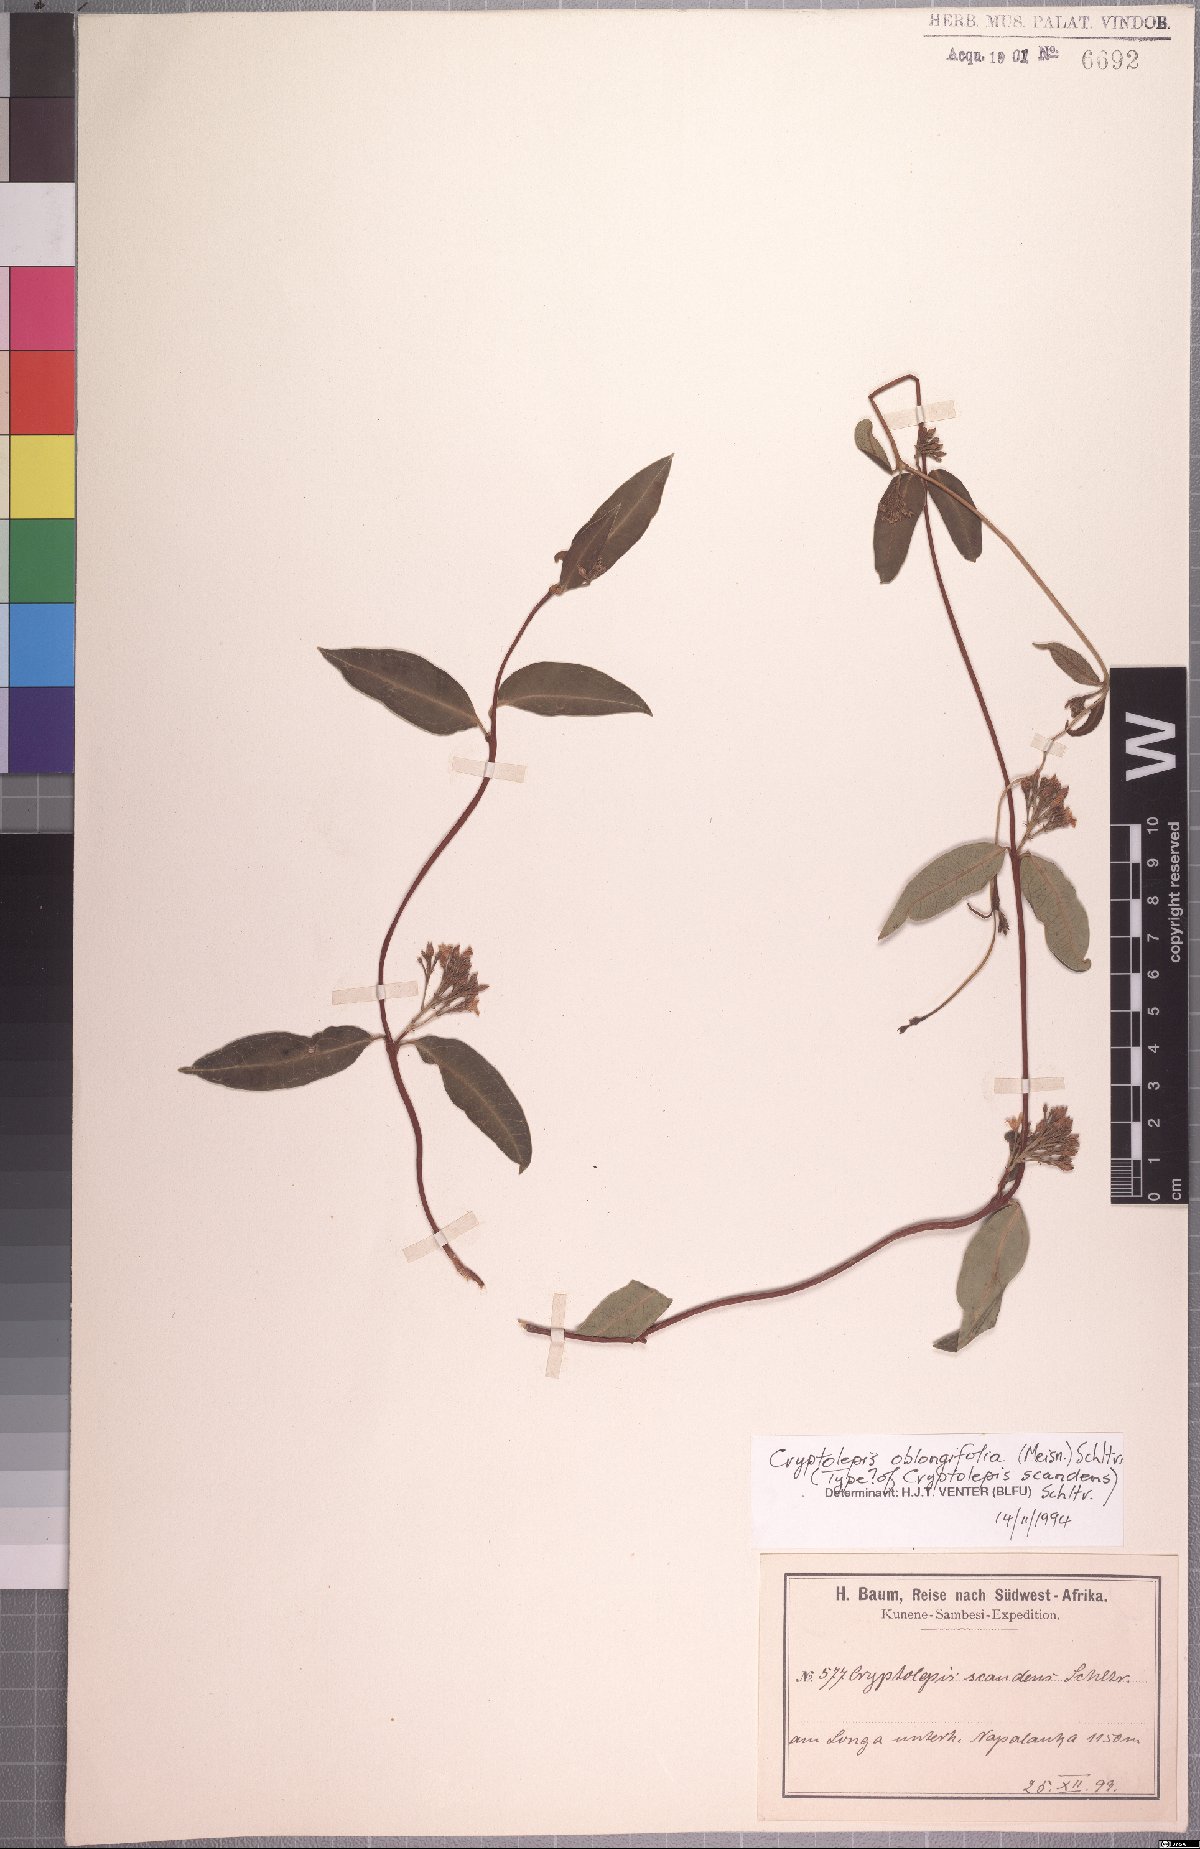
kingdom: Plantae
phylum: Tracheophyta
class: Magnoliopsida
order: Gentianales
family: Apocynaceae
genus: Cryptolepis
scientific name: Cryptolepis oblongifolia
